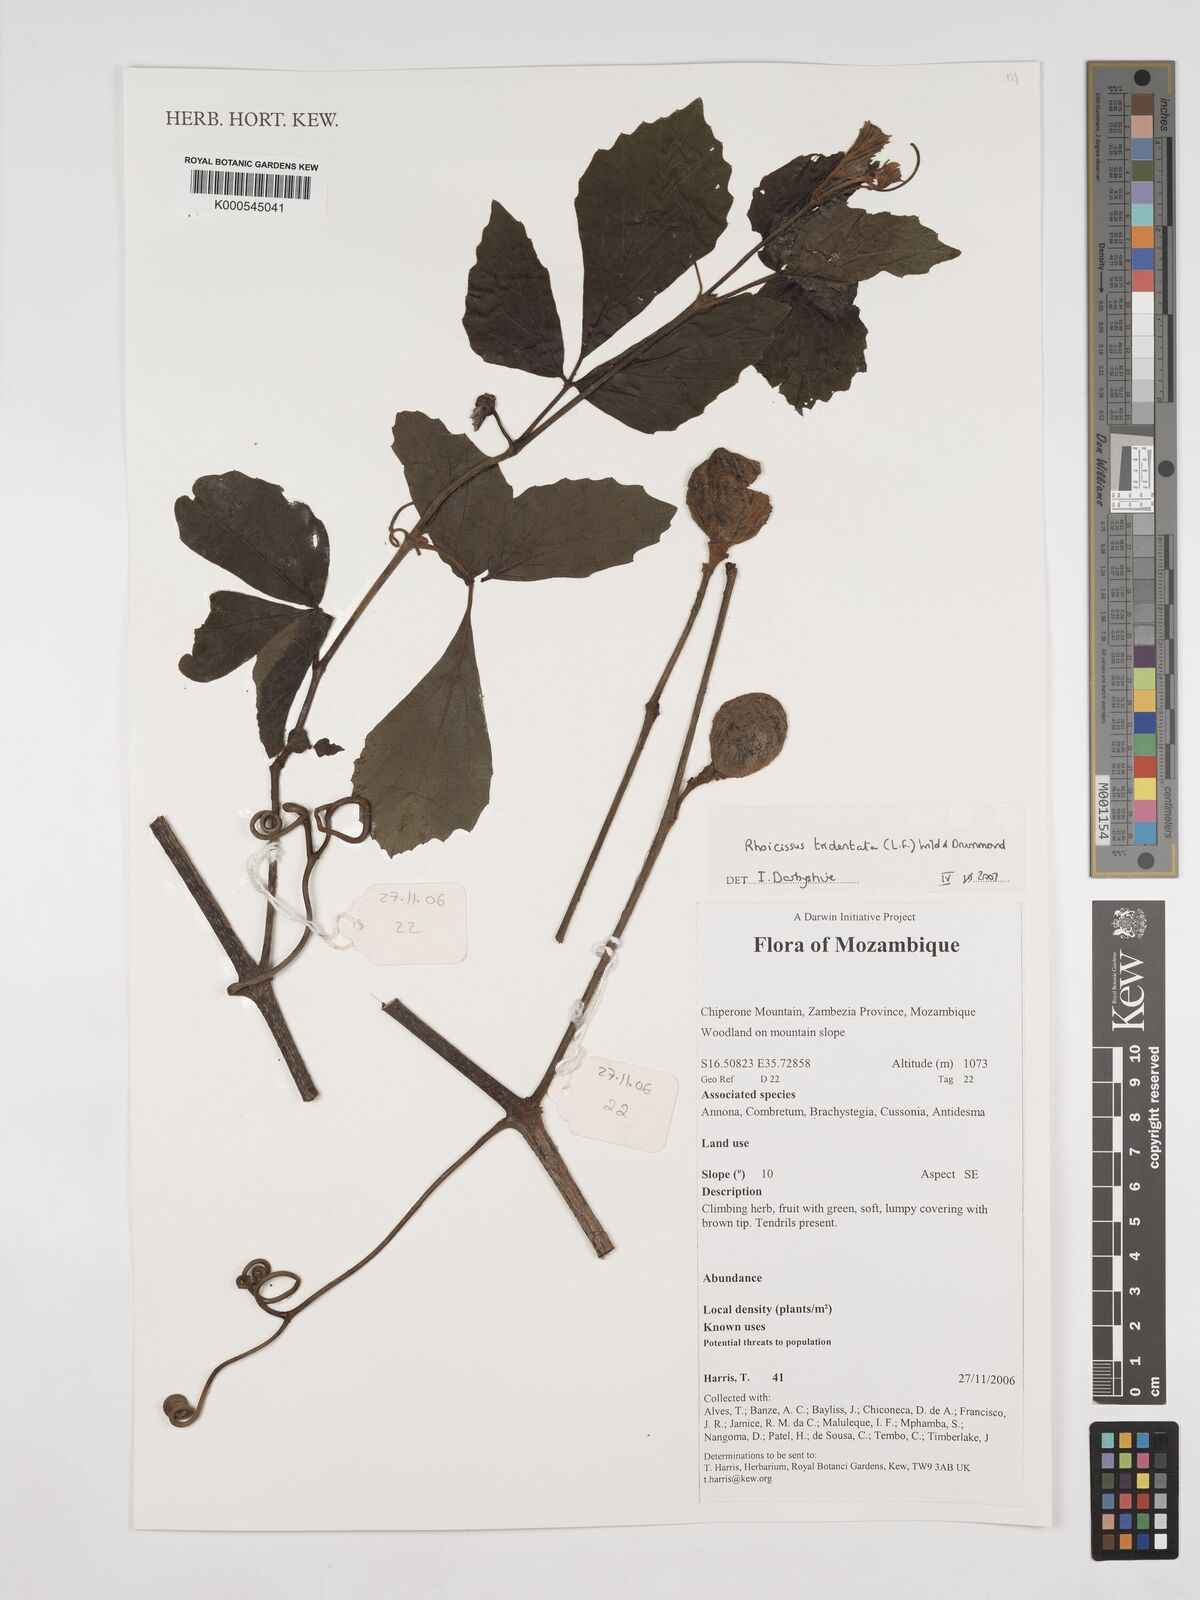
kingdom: Plantae
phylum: Tracheophyta
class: Magnoliopsida
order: Vitales
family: Vitaceae
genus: Rhoicissus
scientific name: Rhoicissus tridentata
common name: Common forest grape
